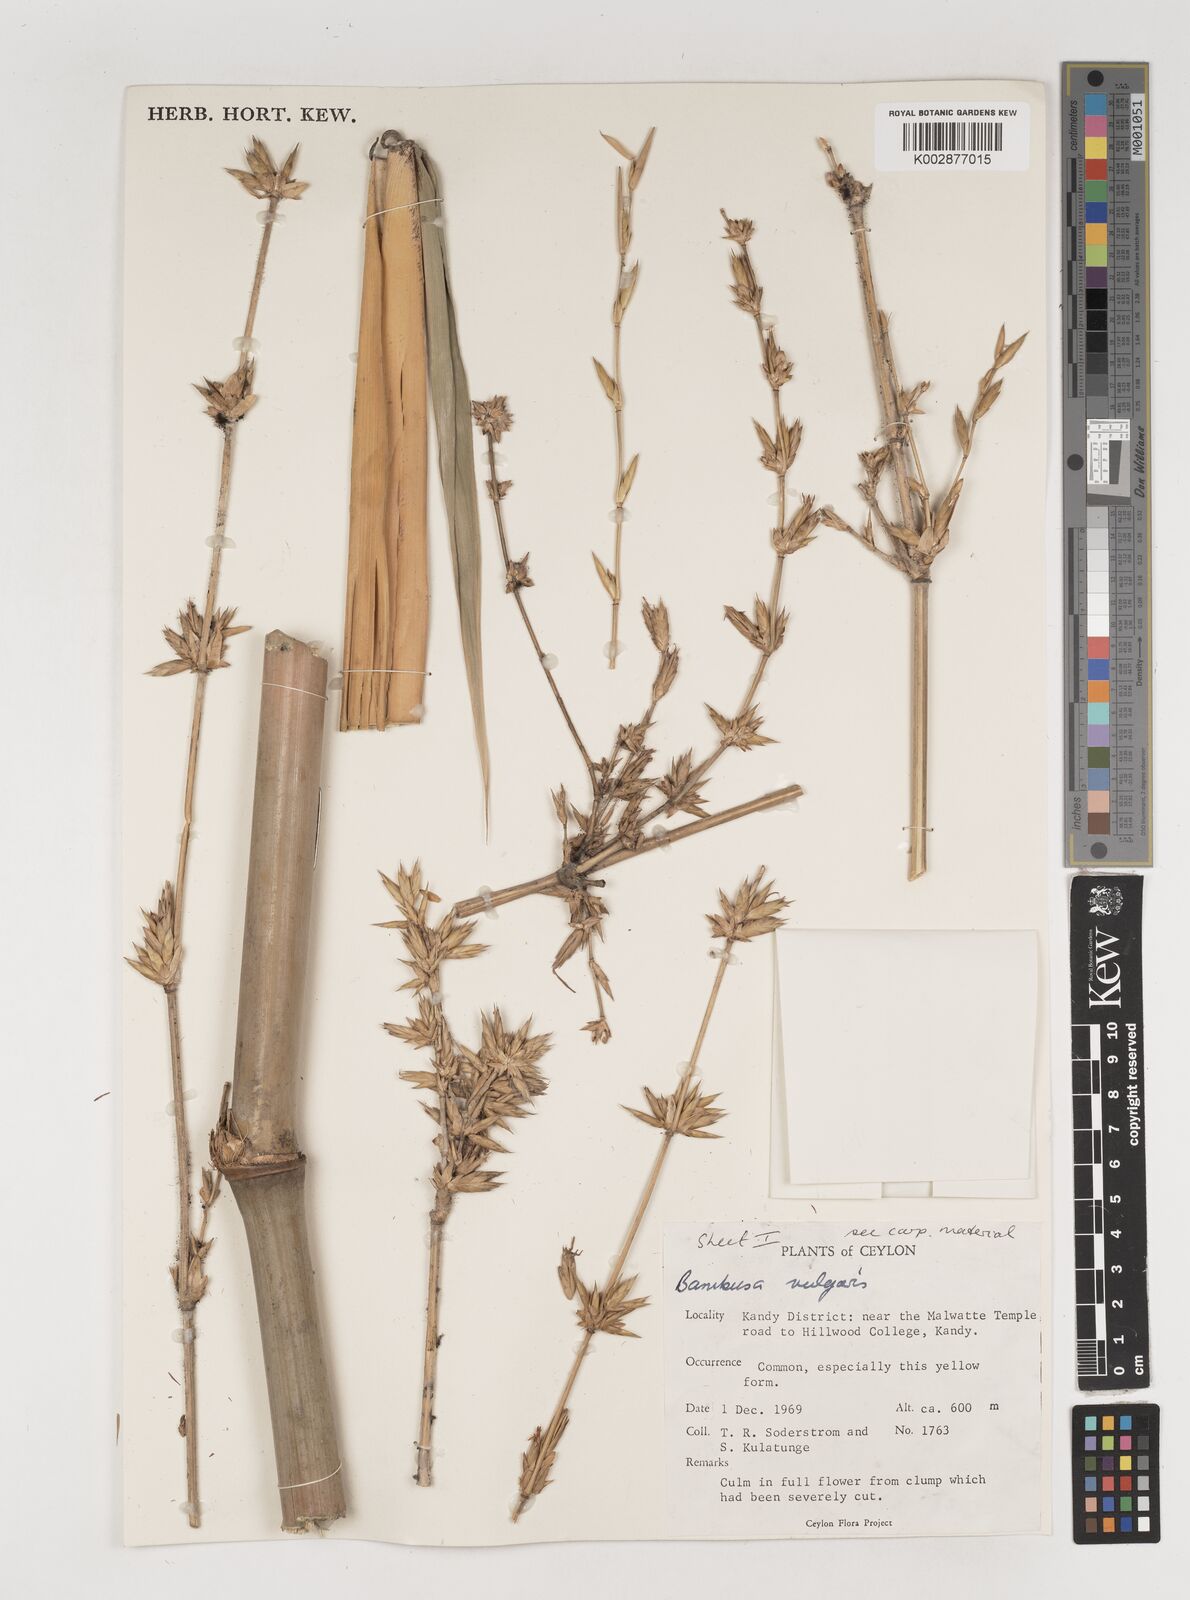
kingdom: Plantae
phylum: Tracheophyta
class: Liliopsida
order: Poales
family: Poaceae
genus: Bambusa
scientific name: Bambusa vulgaris
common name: Common bamboo
